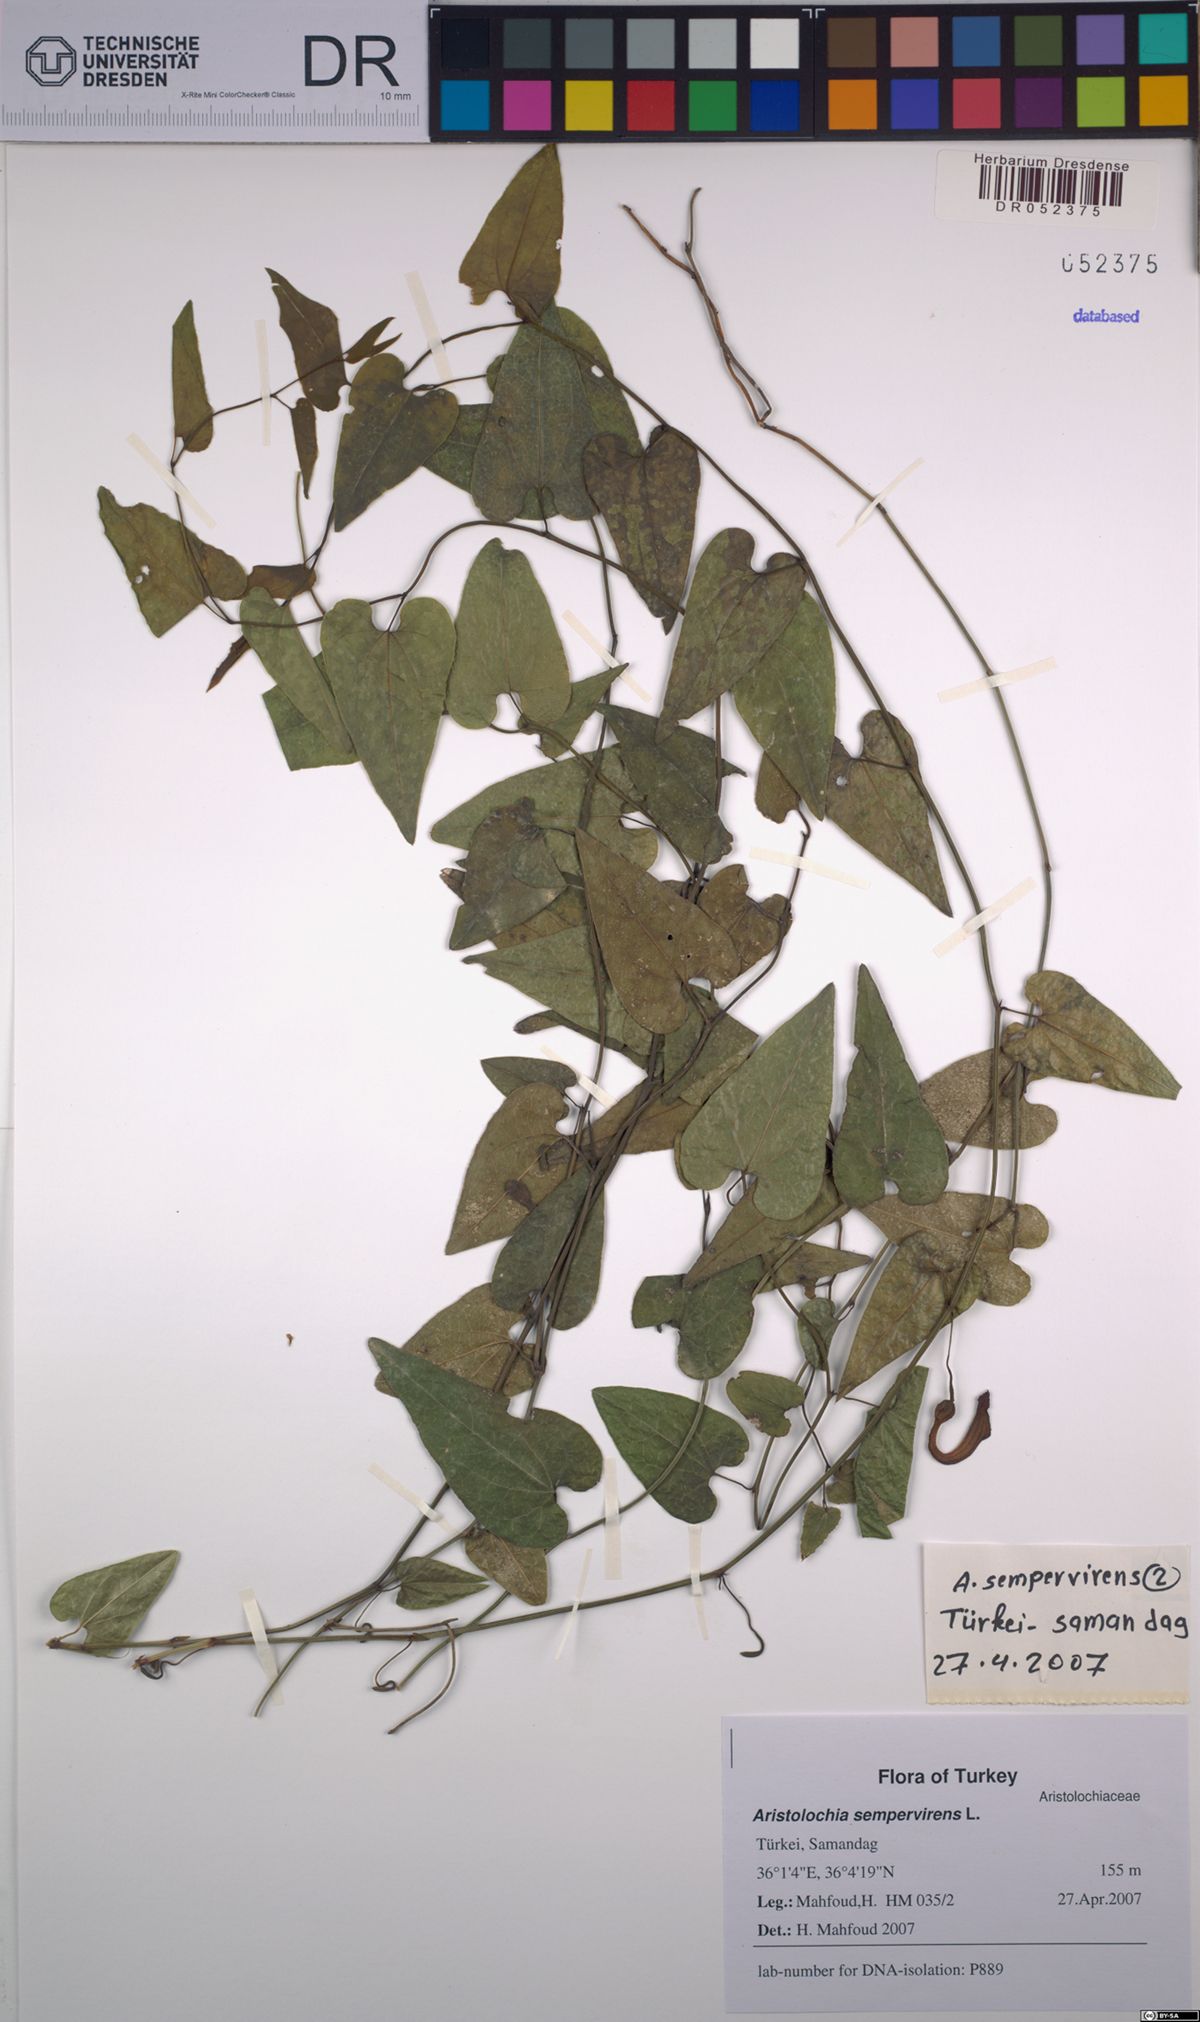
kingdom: Plantae
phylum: Tracheophyta
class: Magnoliopsida
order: Piperales
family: Aristolochiaceae
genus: Aristolochia
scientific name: Aristolochia sempervirens
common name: Long birthwort
